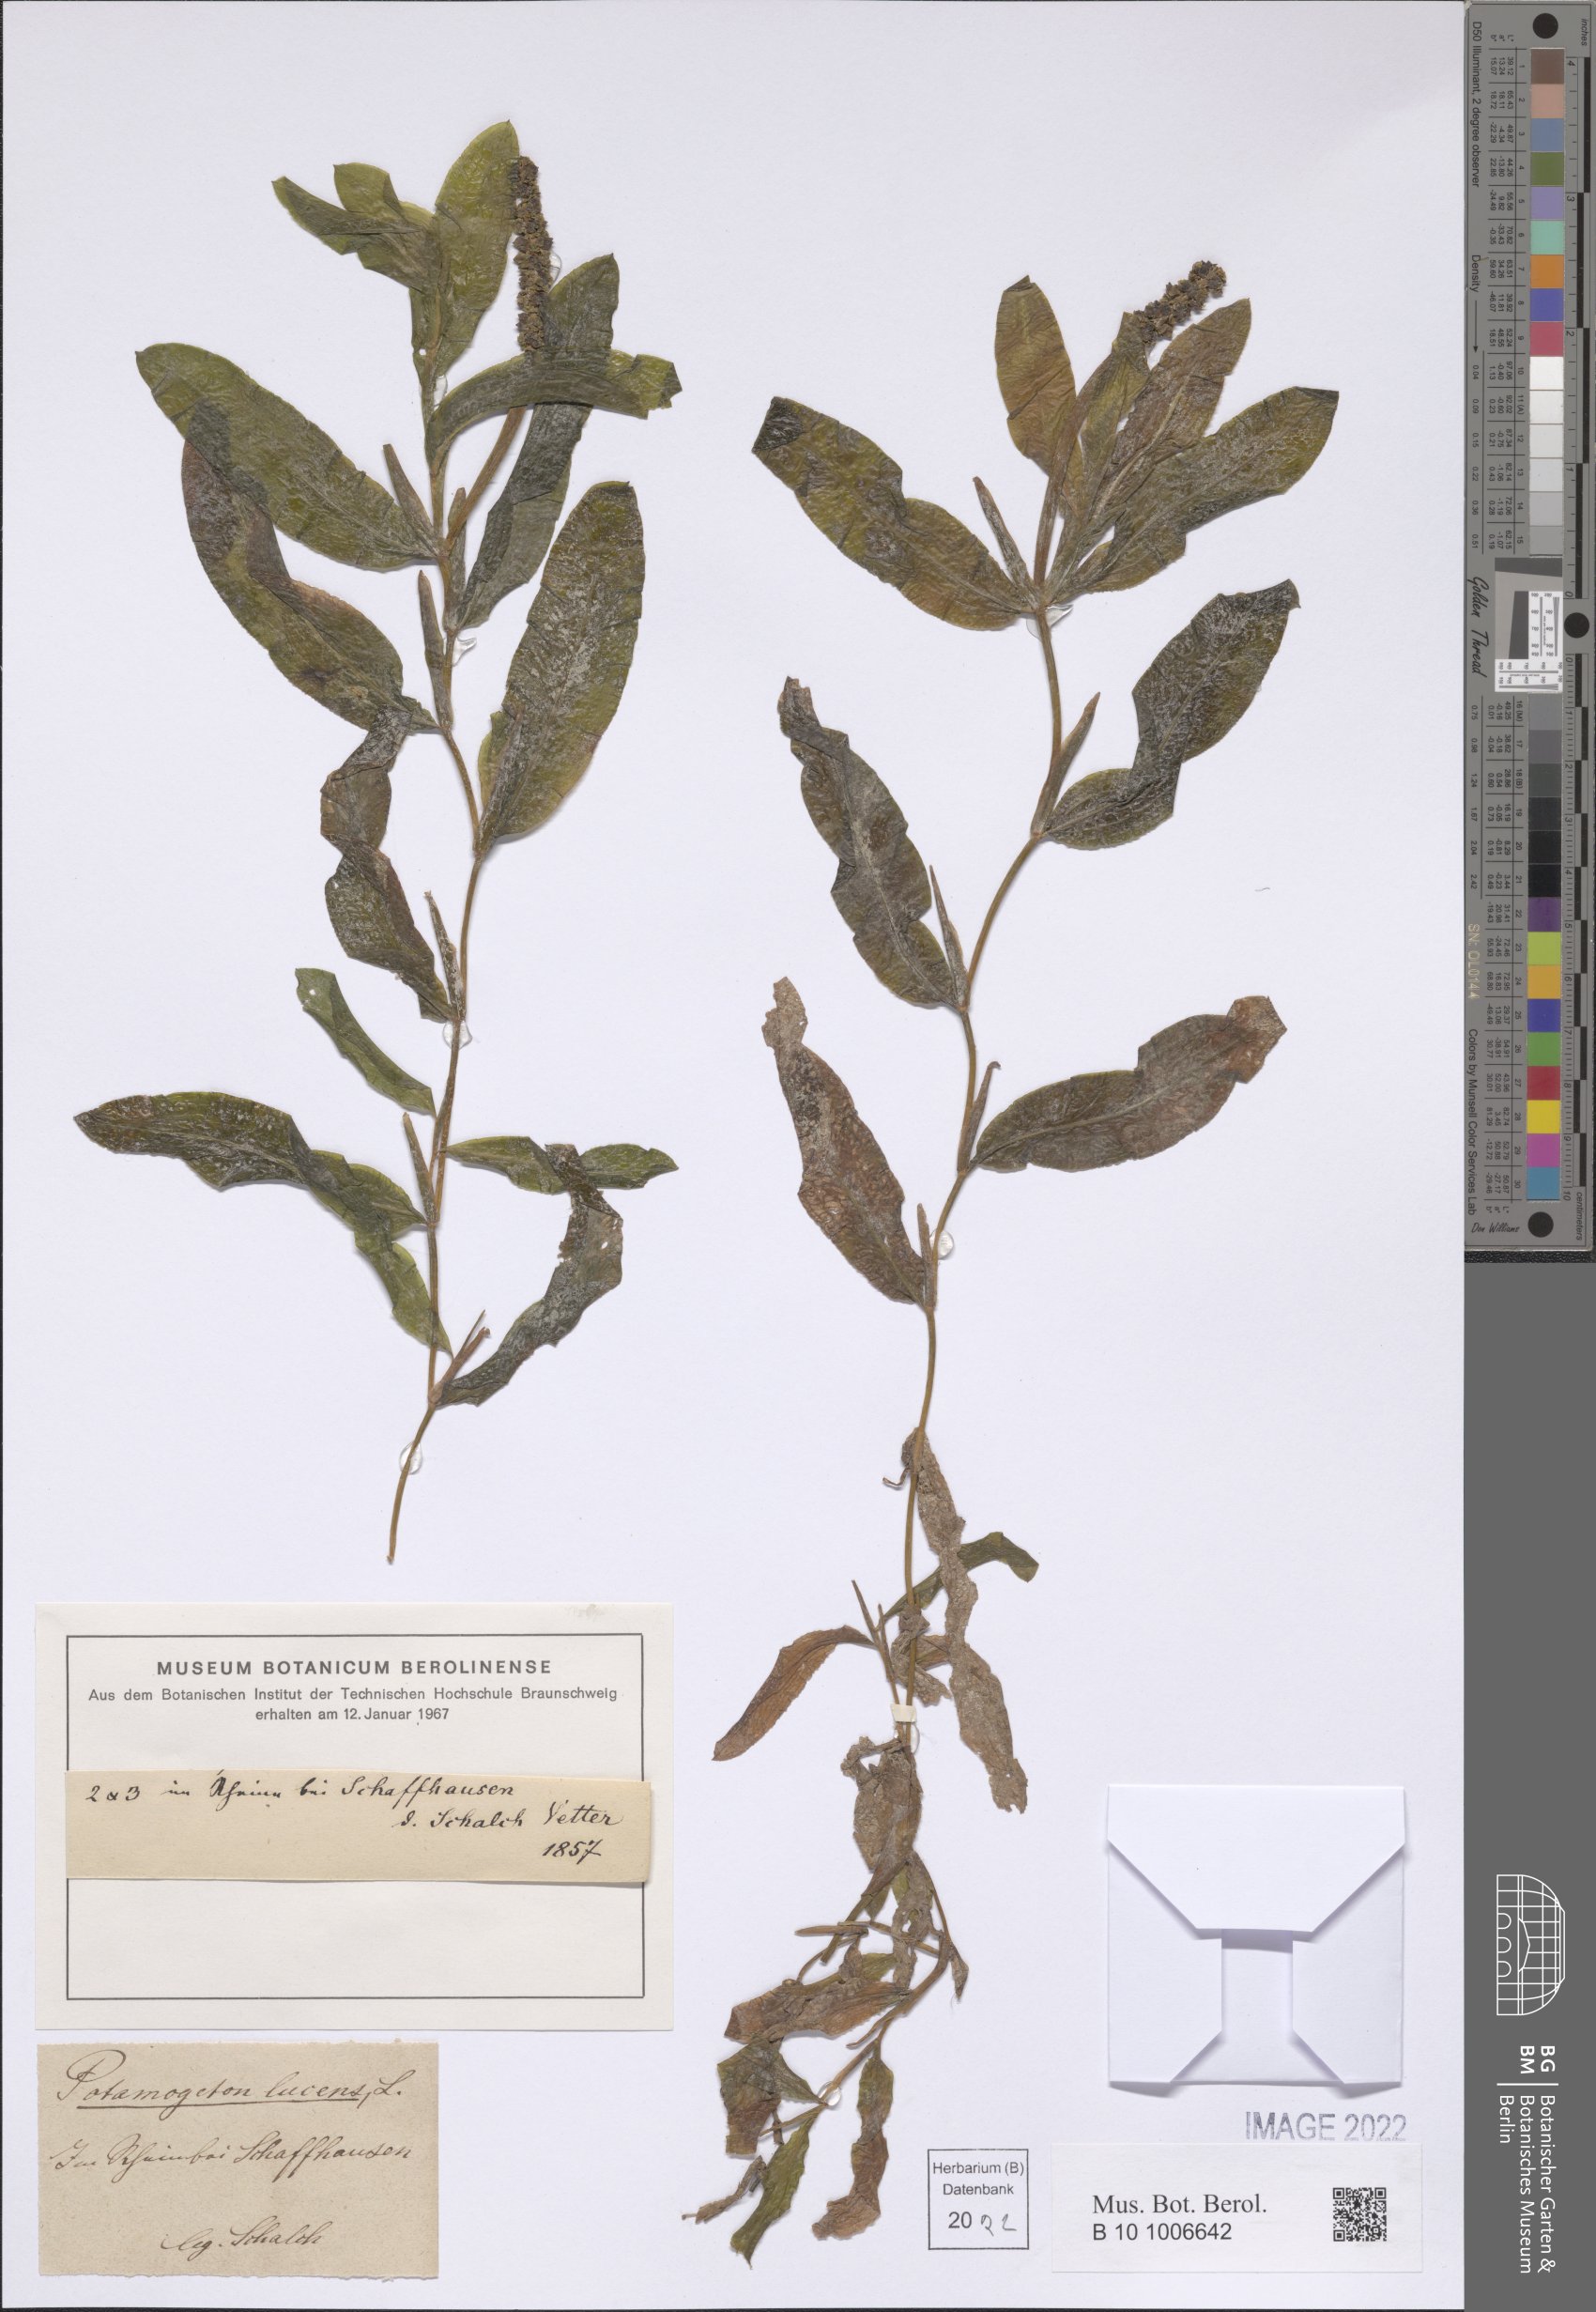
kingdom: Plantae
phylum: Tracheophyta
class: Liliopsida
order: Alismatales
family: Potamogetonaceae
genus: Potamogeton
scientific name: Potamogeton lucens
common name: Shining pondweed
